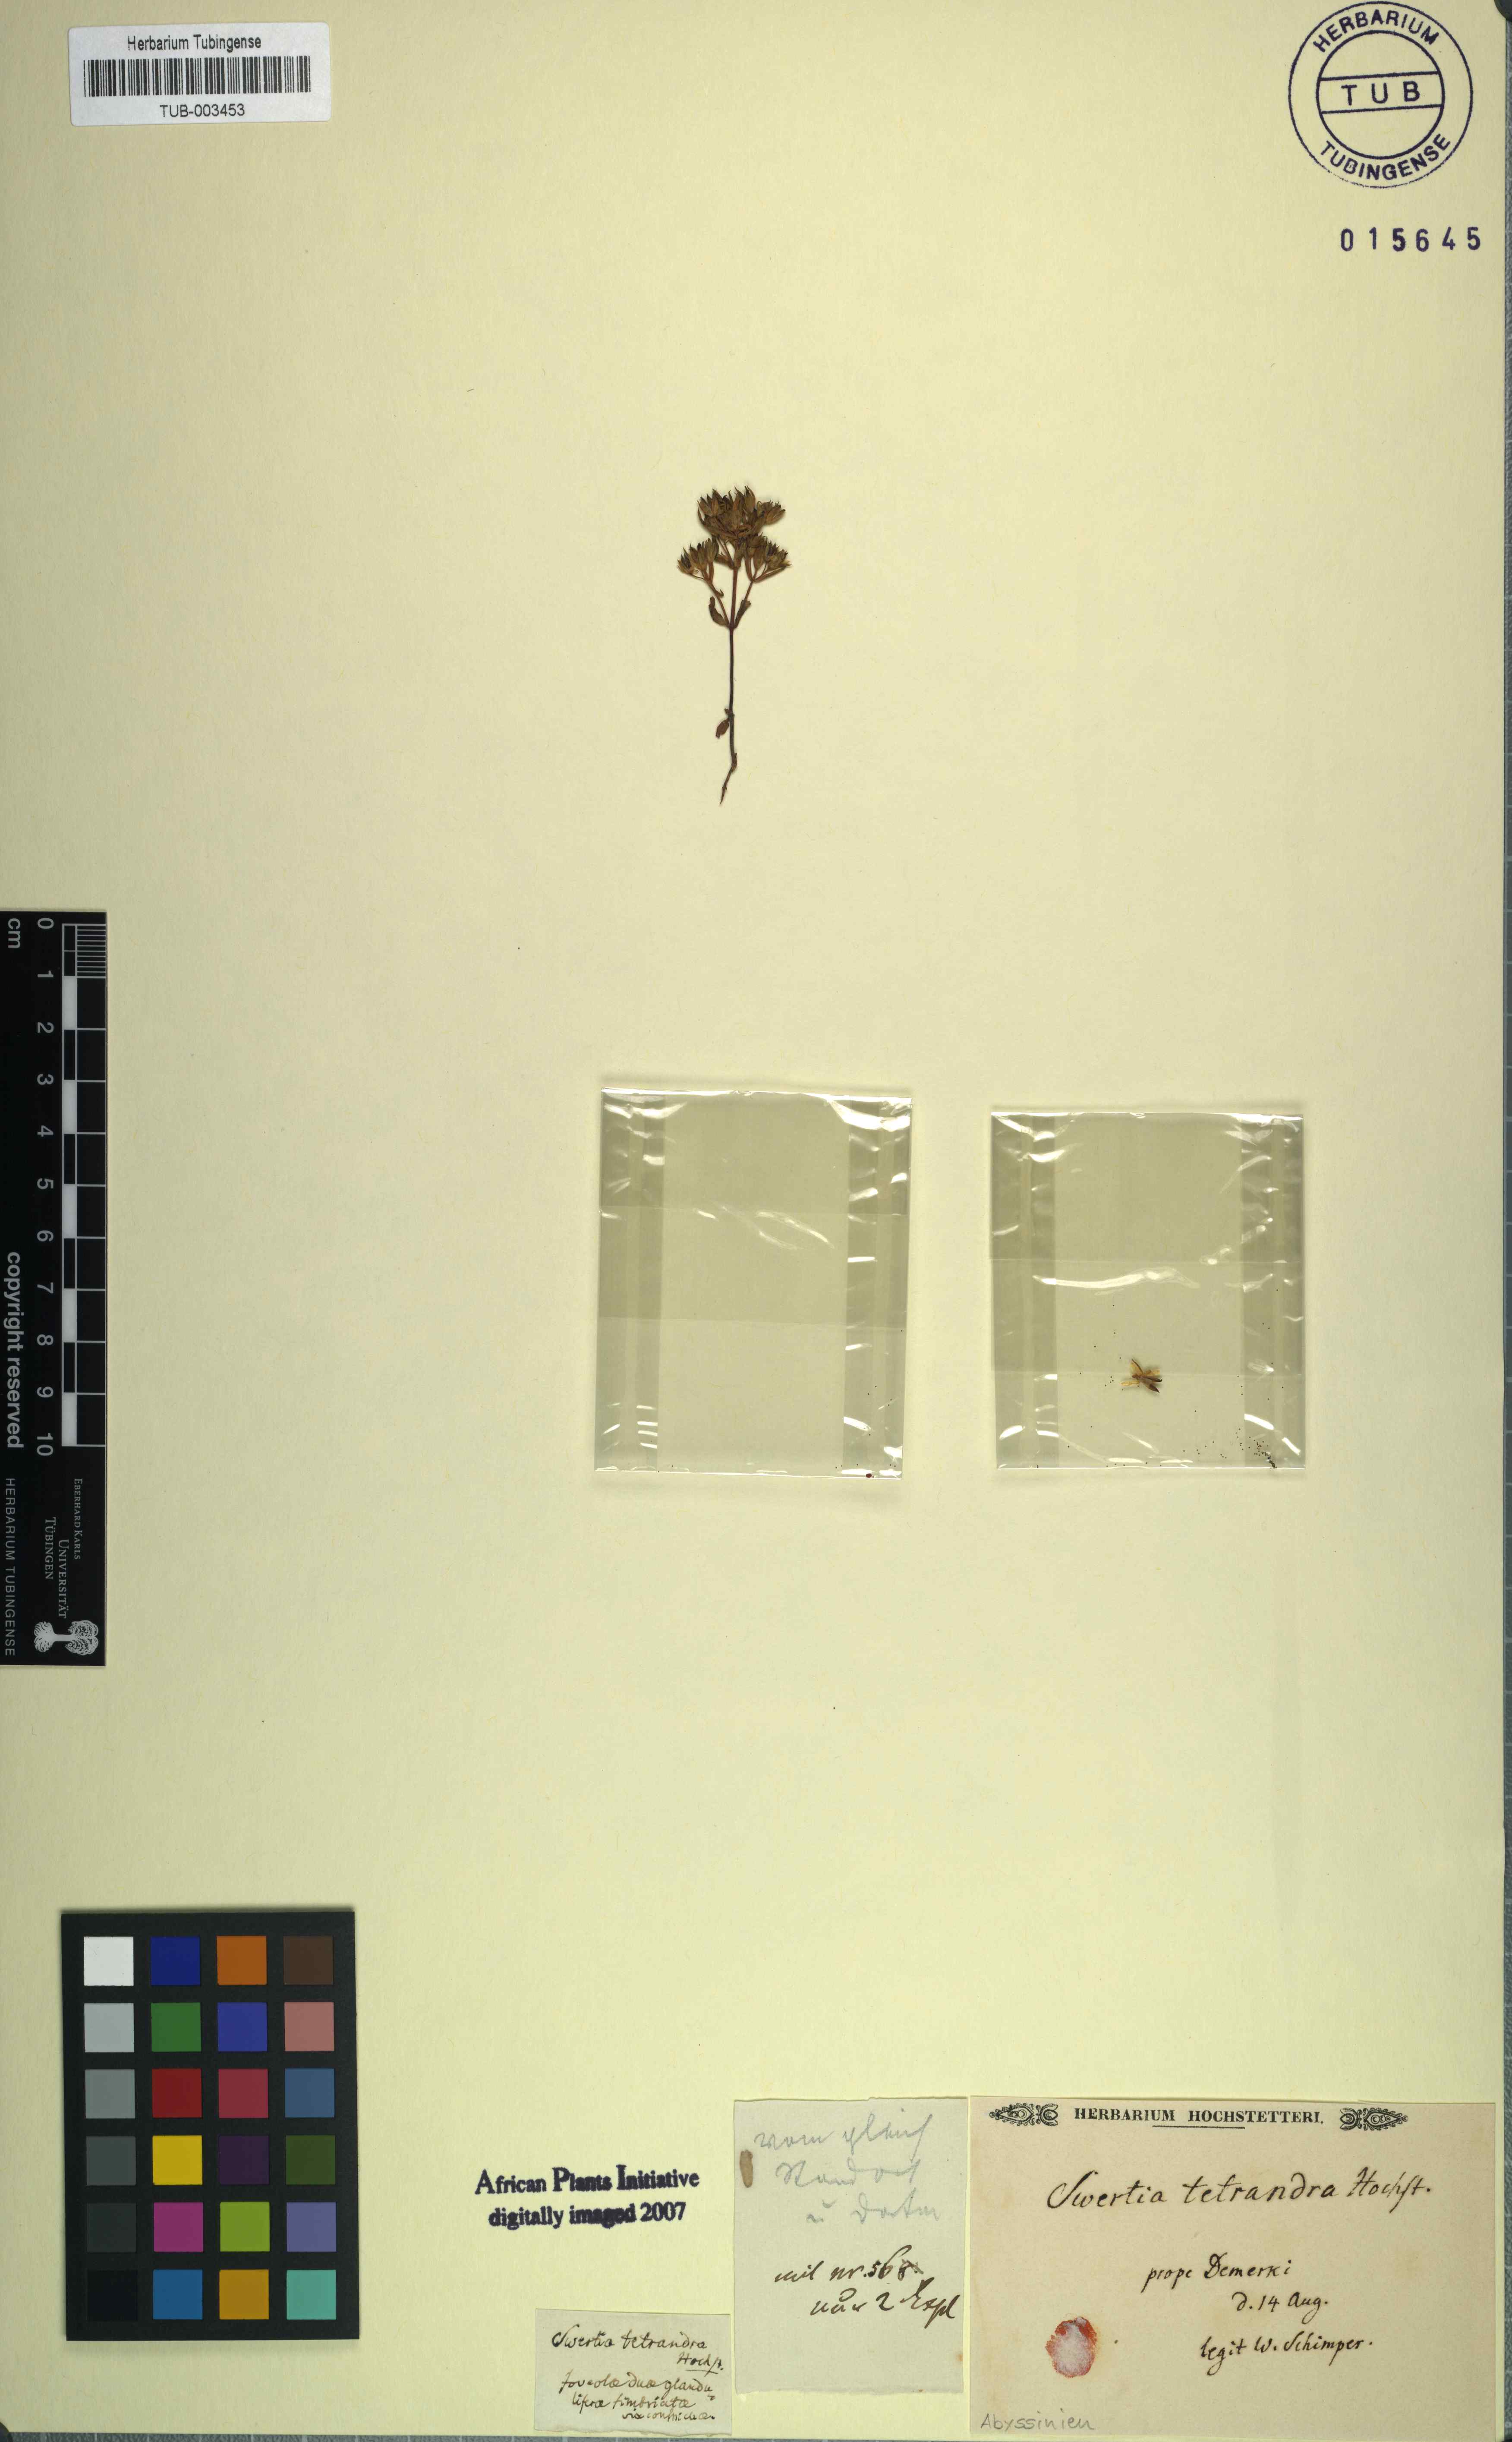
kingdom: Plantae
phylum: Tracheophyta
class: Magnoliopsida
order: Gentianales
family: Gentianaceae
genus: Swertia
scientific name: Swertia tetrandra
